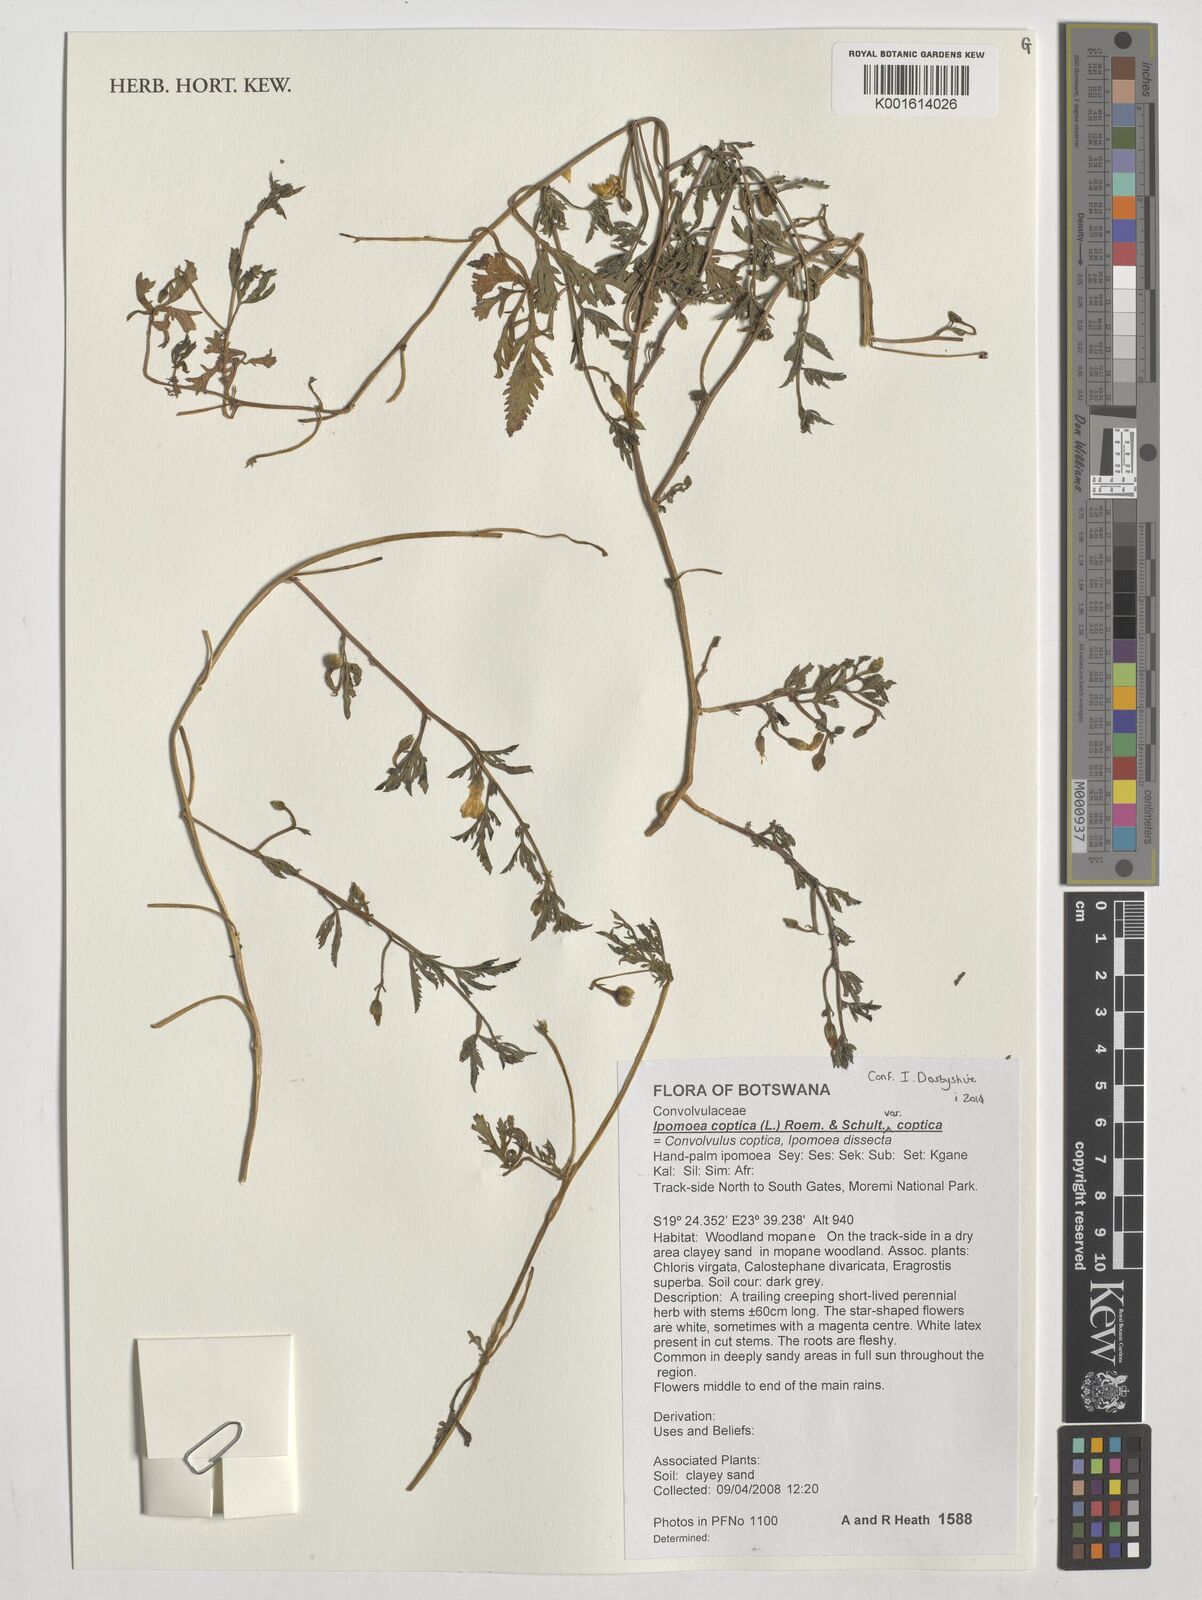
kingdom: Plantae
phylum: Tracheophyta
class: Magnoliopsida
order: Solanales
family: Convolvulaceae
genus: Ipomoea
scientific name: Ipomoea coptica
